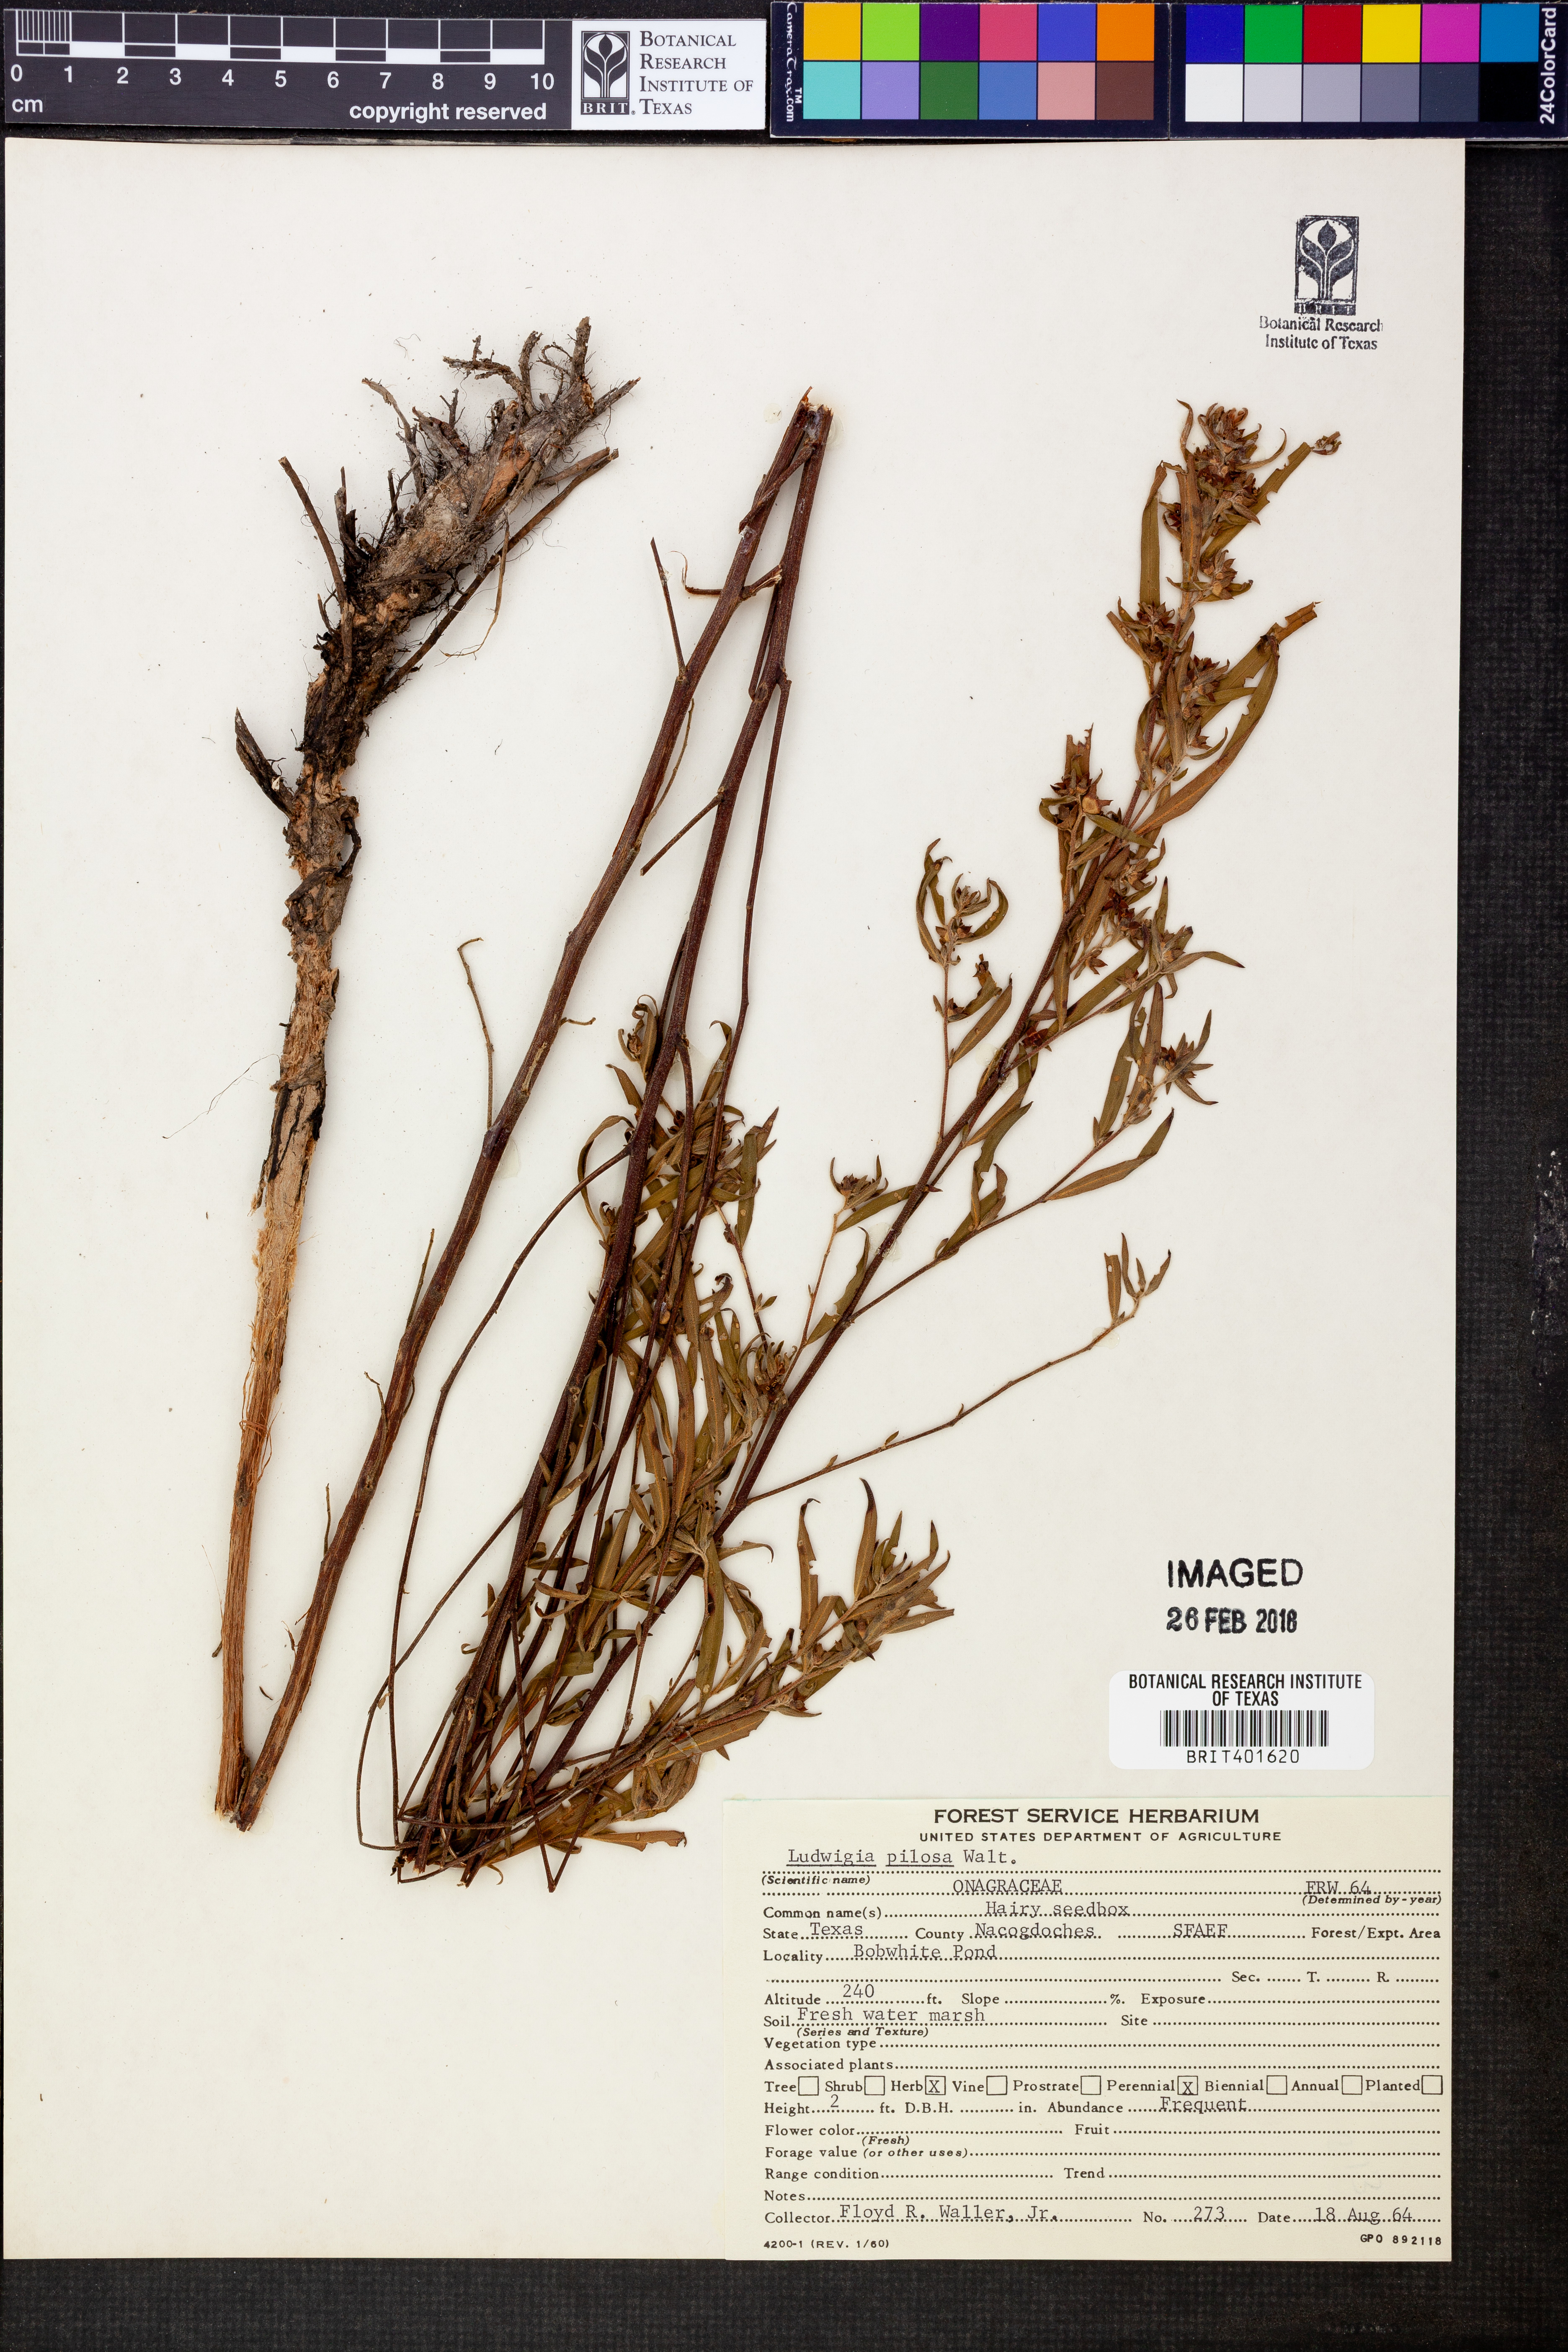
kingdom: Plantae
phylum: Tracheophyta
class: Magnoliopsida
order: Myrtales
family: Onagraceae
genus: Ludwigia
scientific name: Ludwigia pilosa
